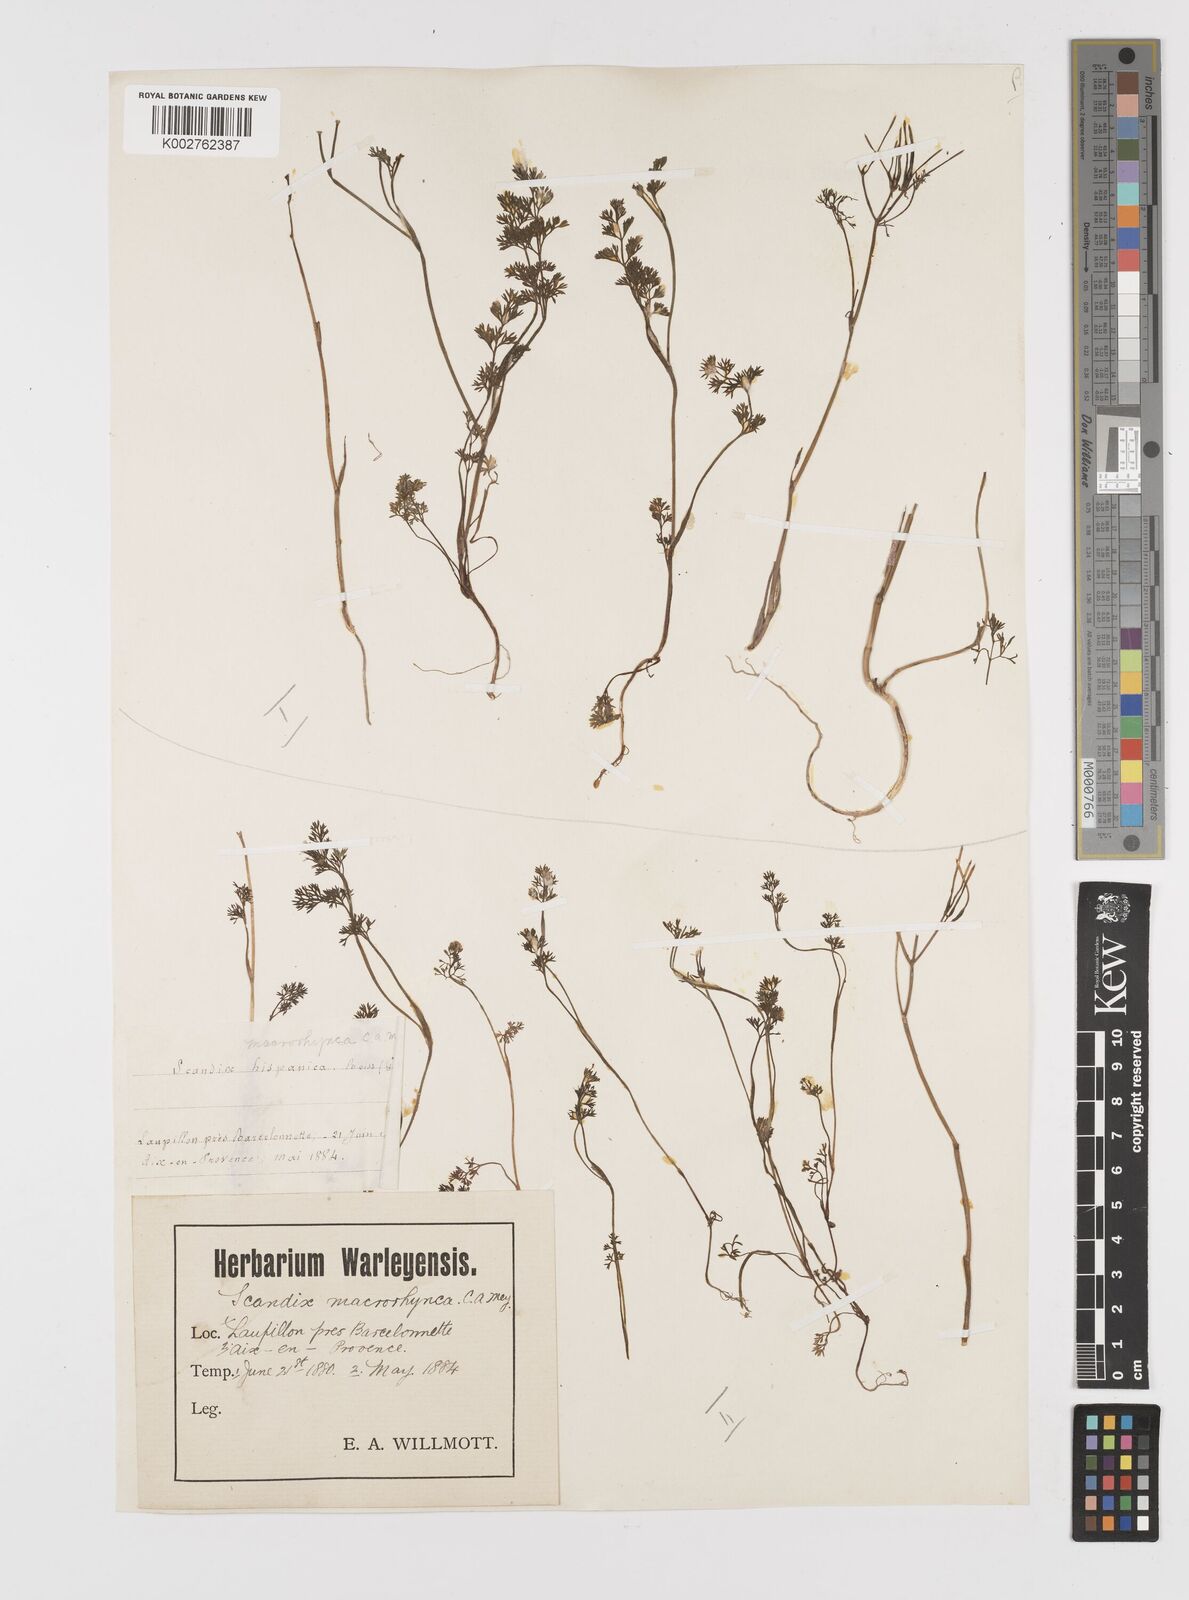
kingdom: Plantae
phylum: Tracheophyta
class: Magnoliopsida
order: Apiales
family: Apiaceae
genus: Scandix
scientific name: Scandix pecten-veneris
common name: Shepherd's-needle
